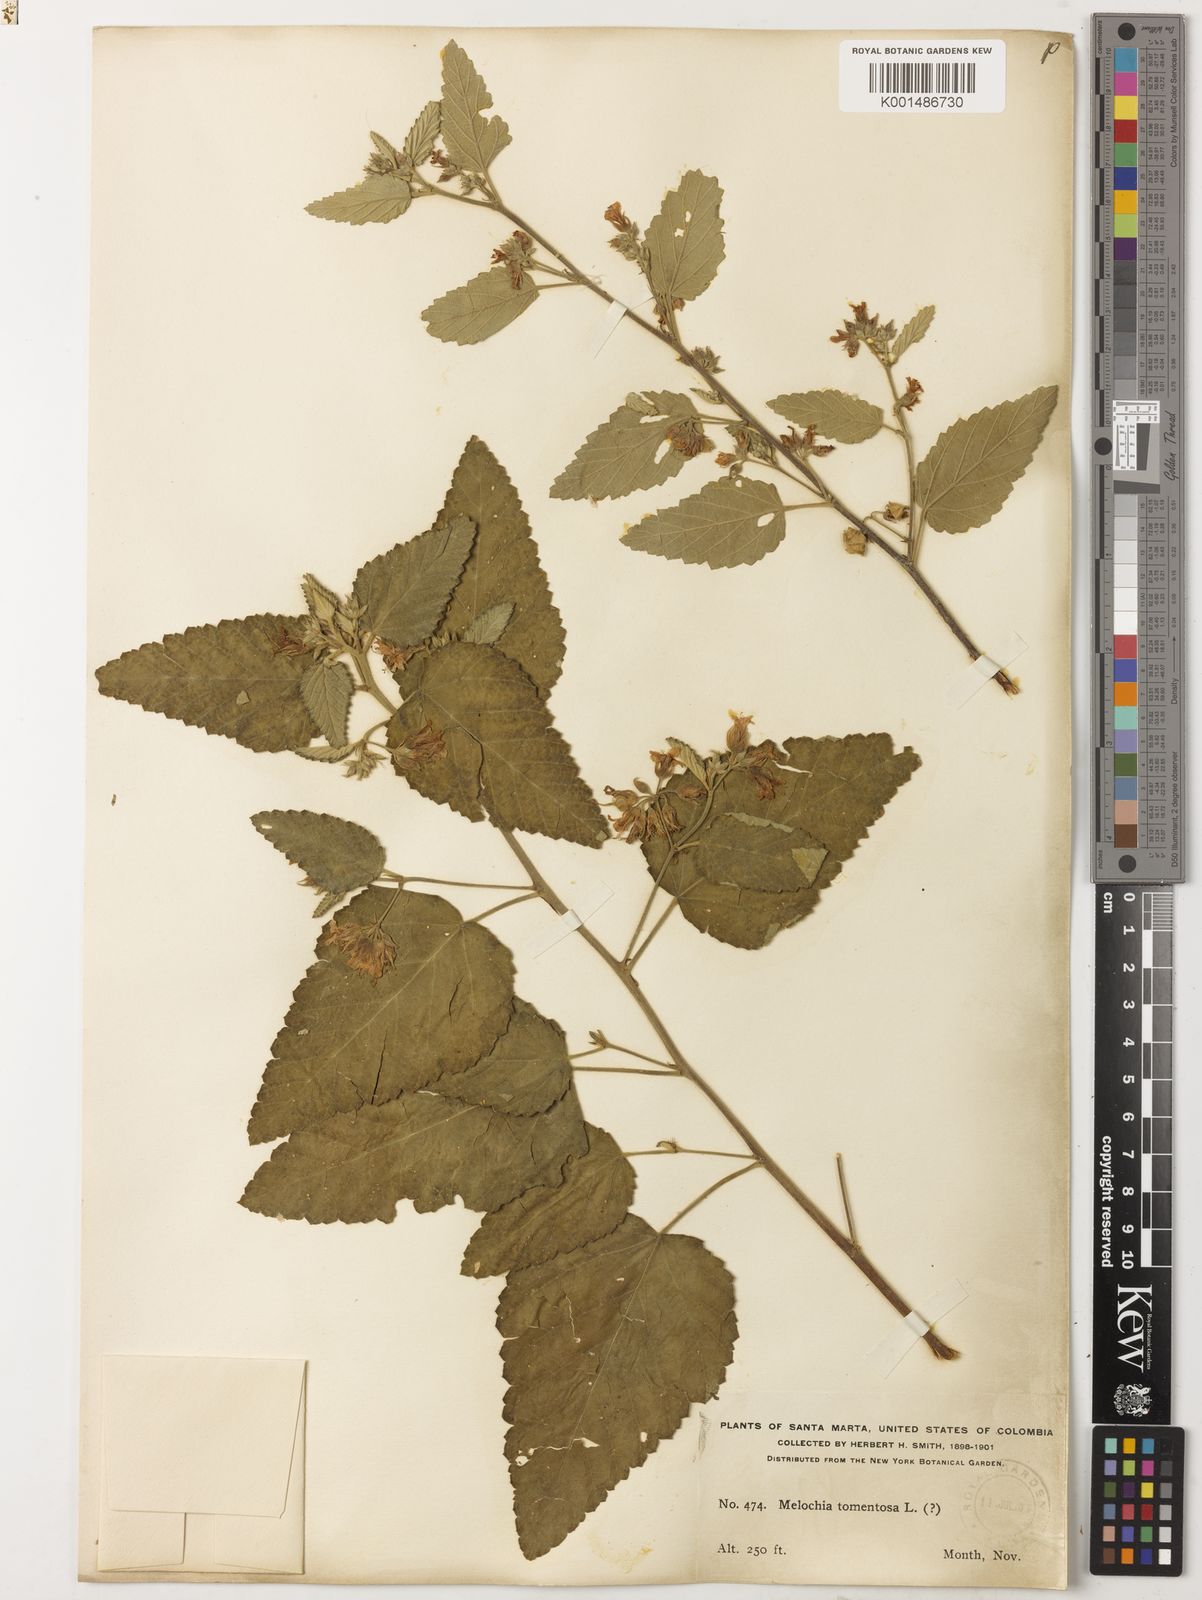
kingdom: Plantae
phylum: Tracheophyta
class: Magnoliopsida
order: Malvales
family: Malvaceae
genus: Melochia
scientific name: Melochia tomentosa
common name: Black torch
